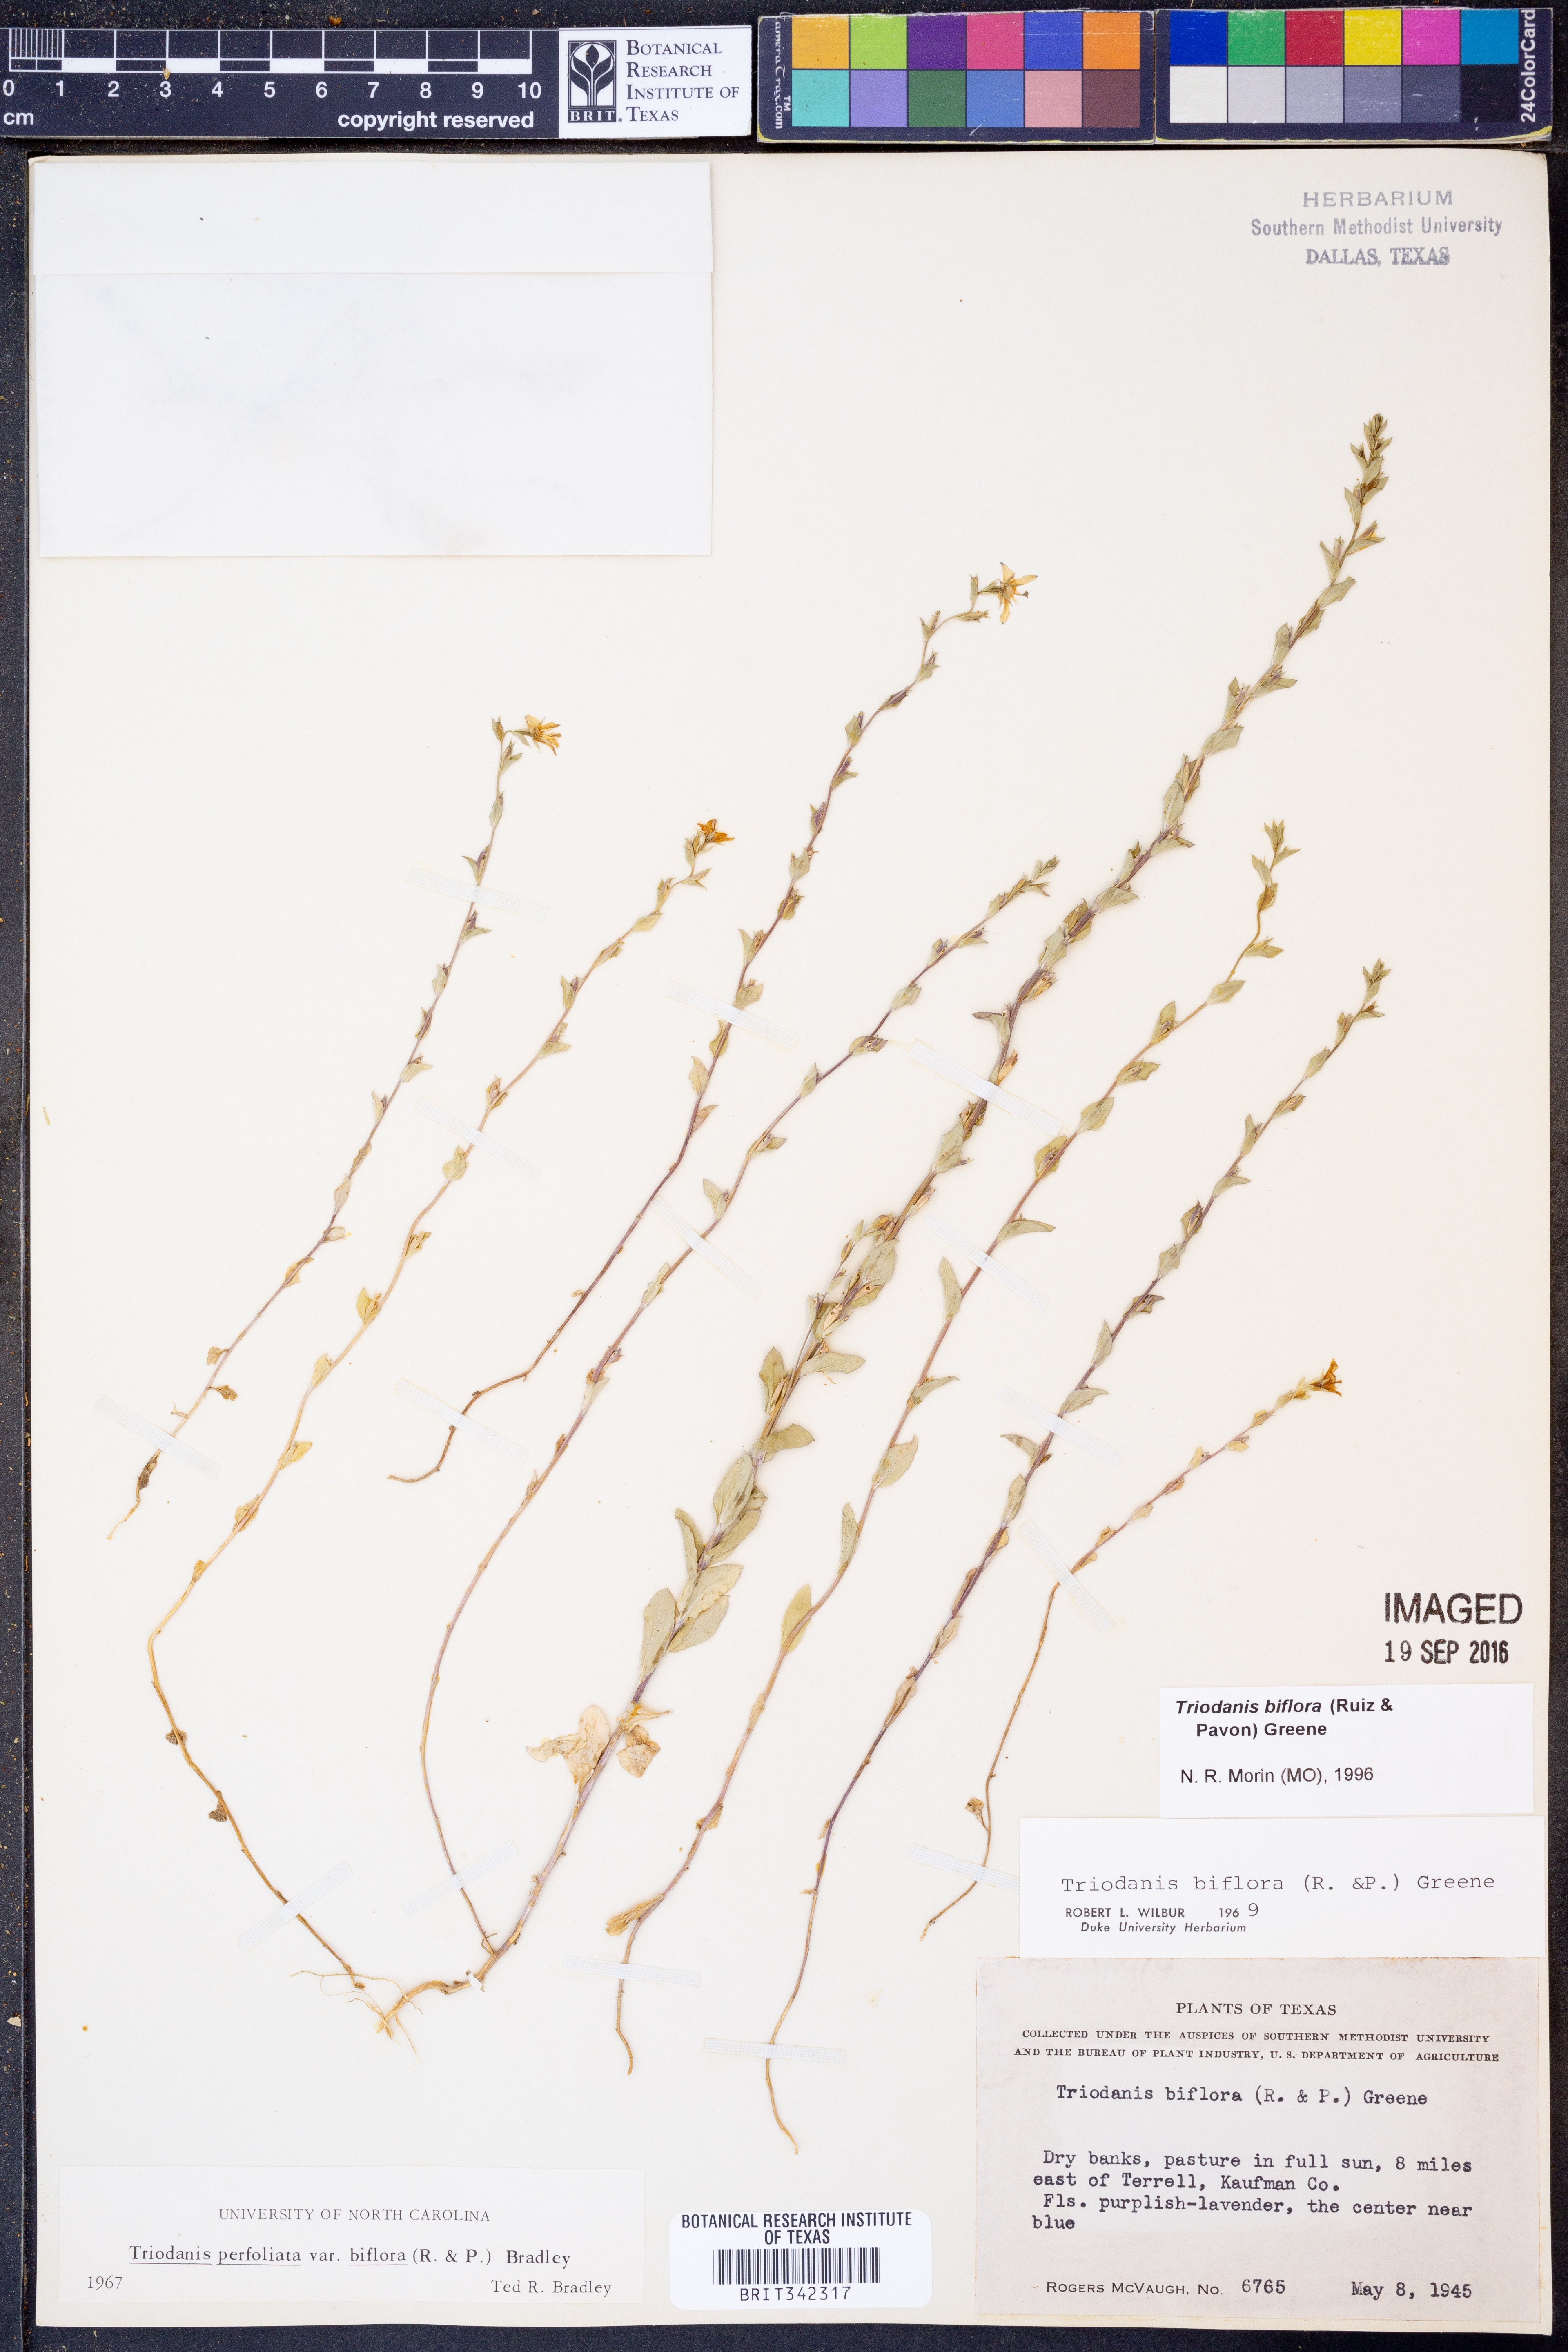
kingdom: Plantae
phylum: Tracheophyta
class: Magnoliopsida
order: Asterales
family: Campanulaceae
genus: Triodanis
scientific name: Triodanis perfoliata
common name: Clasping venus' looking-glass
